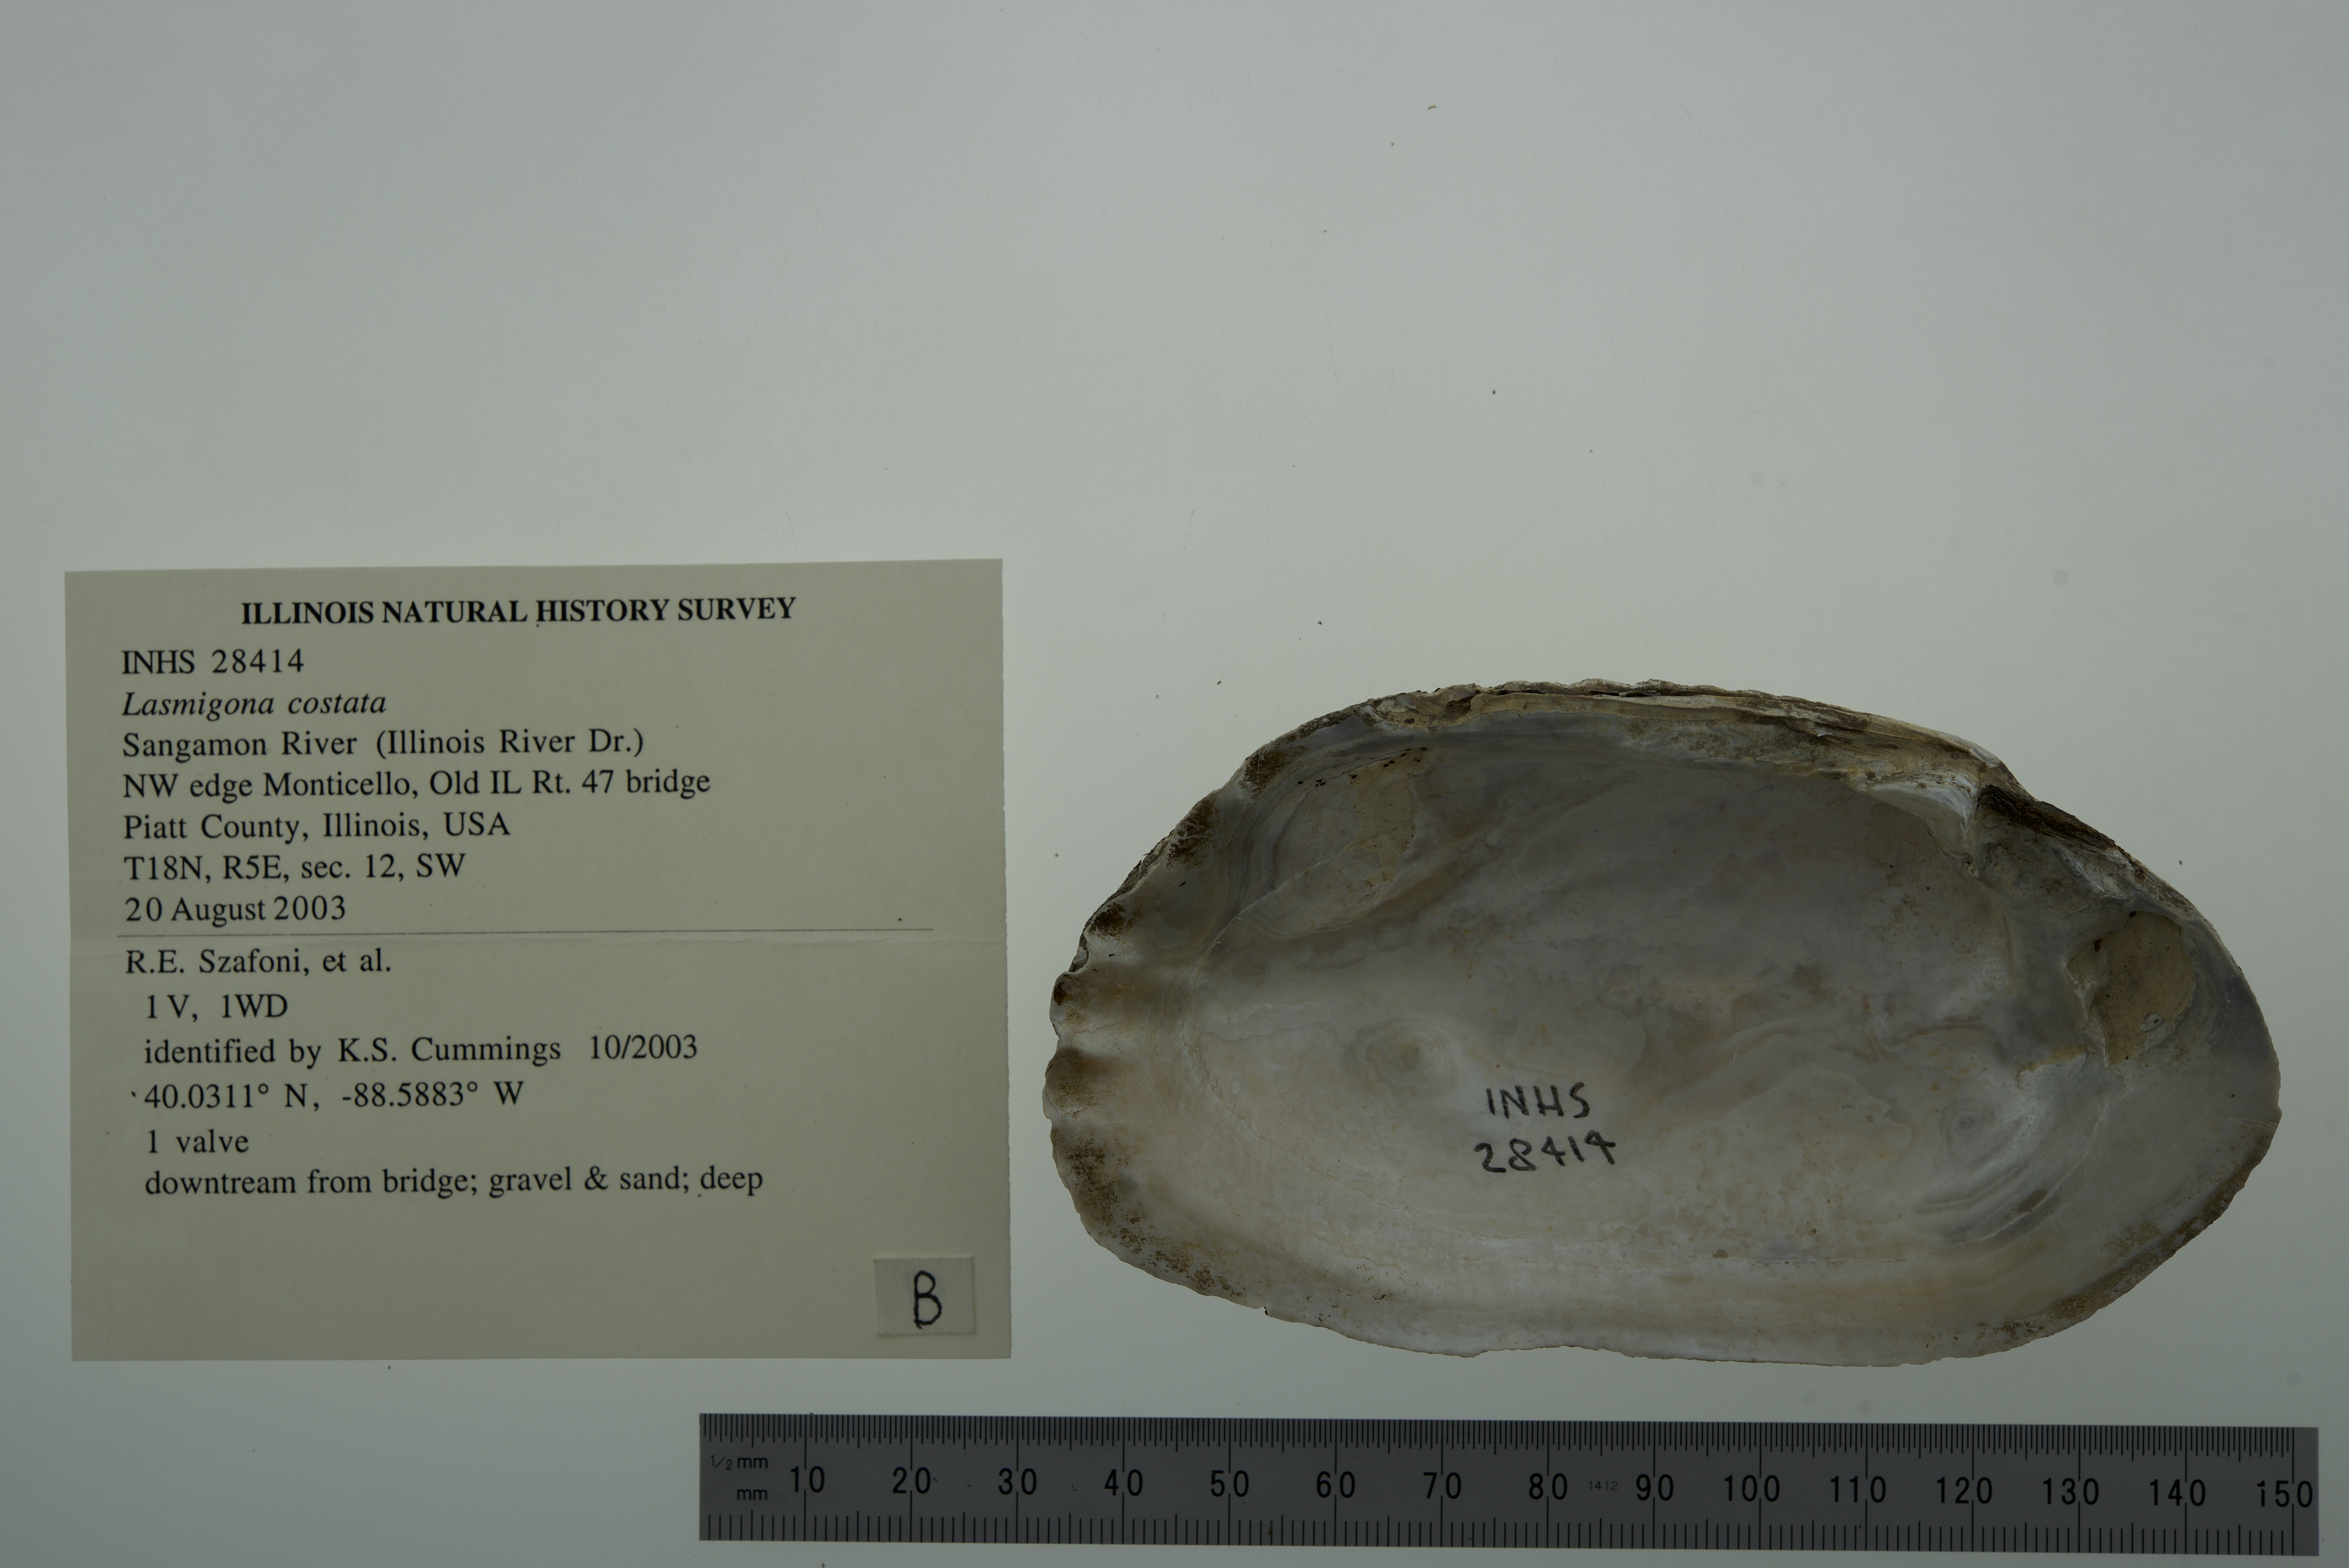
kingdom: Animalia
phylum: Mollusca
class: Bivalvia
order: Unionida
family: Unionidae
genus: Lasmigona
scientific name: Lasmigona costata
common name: Flutedshell
